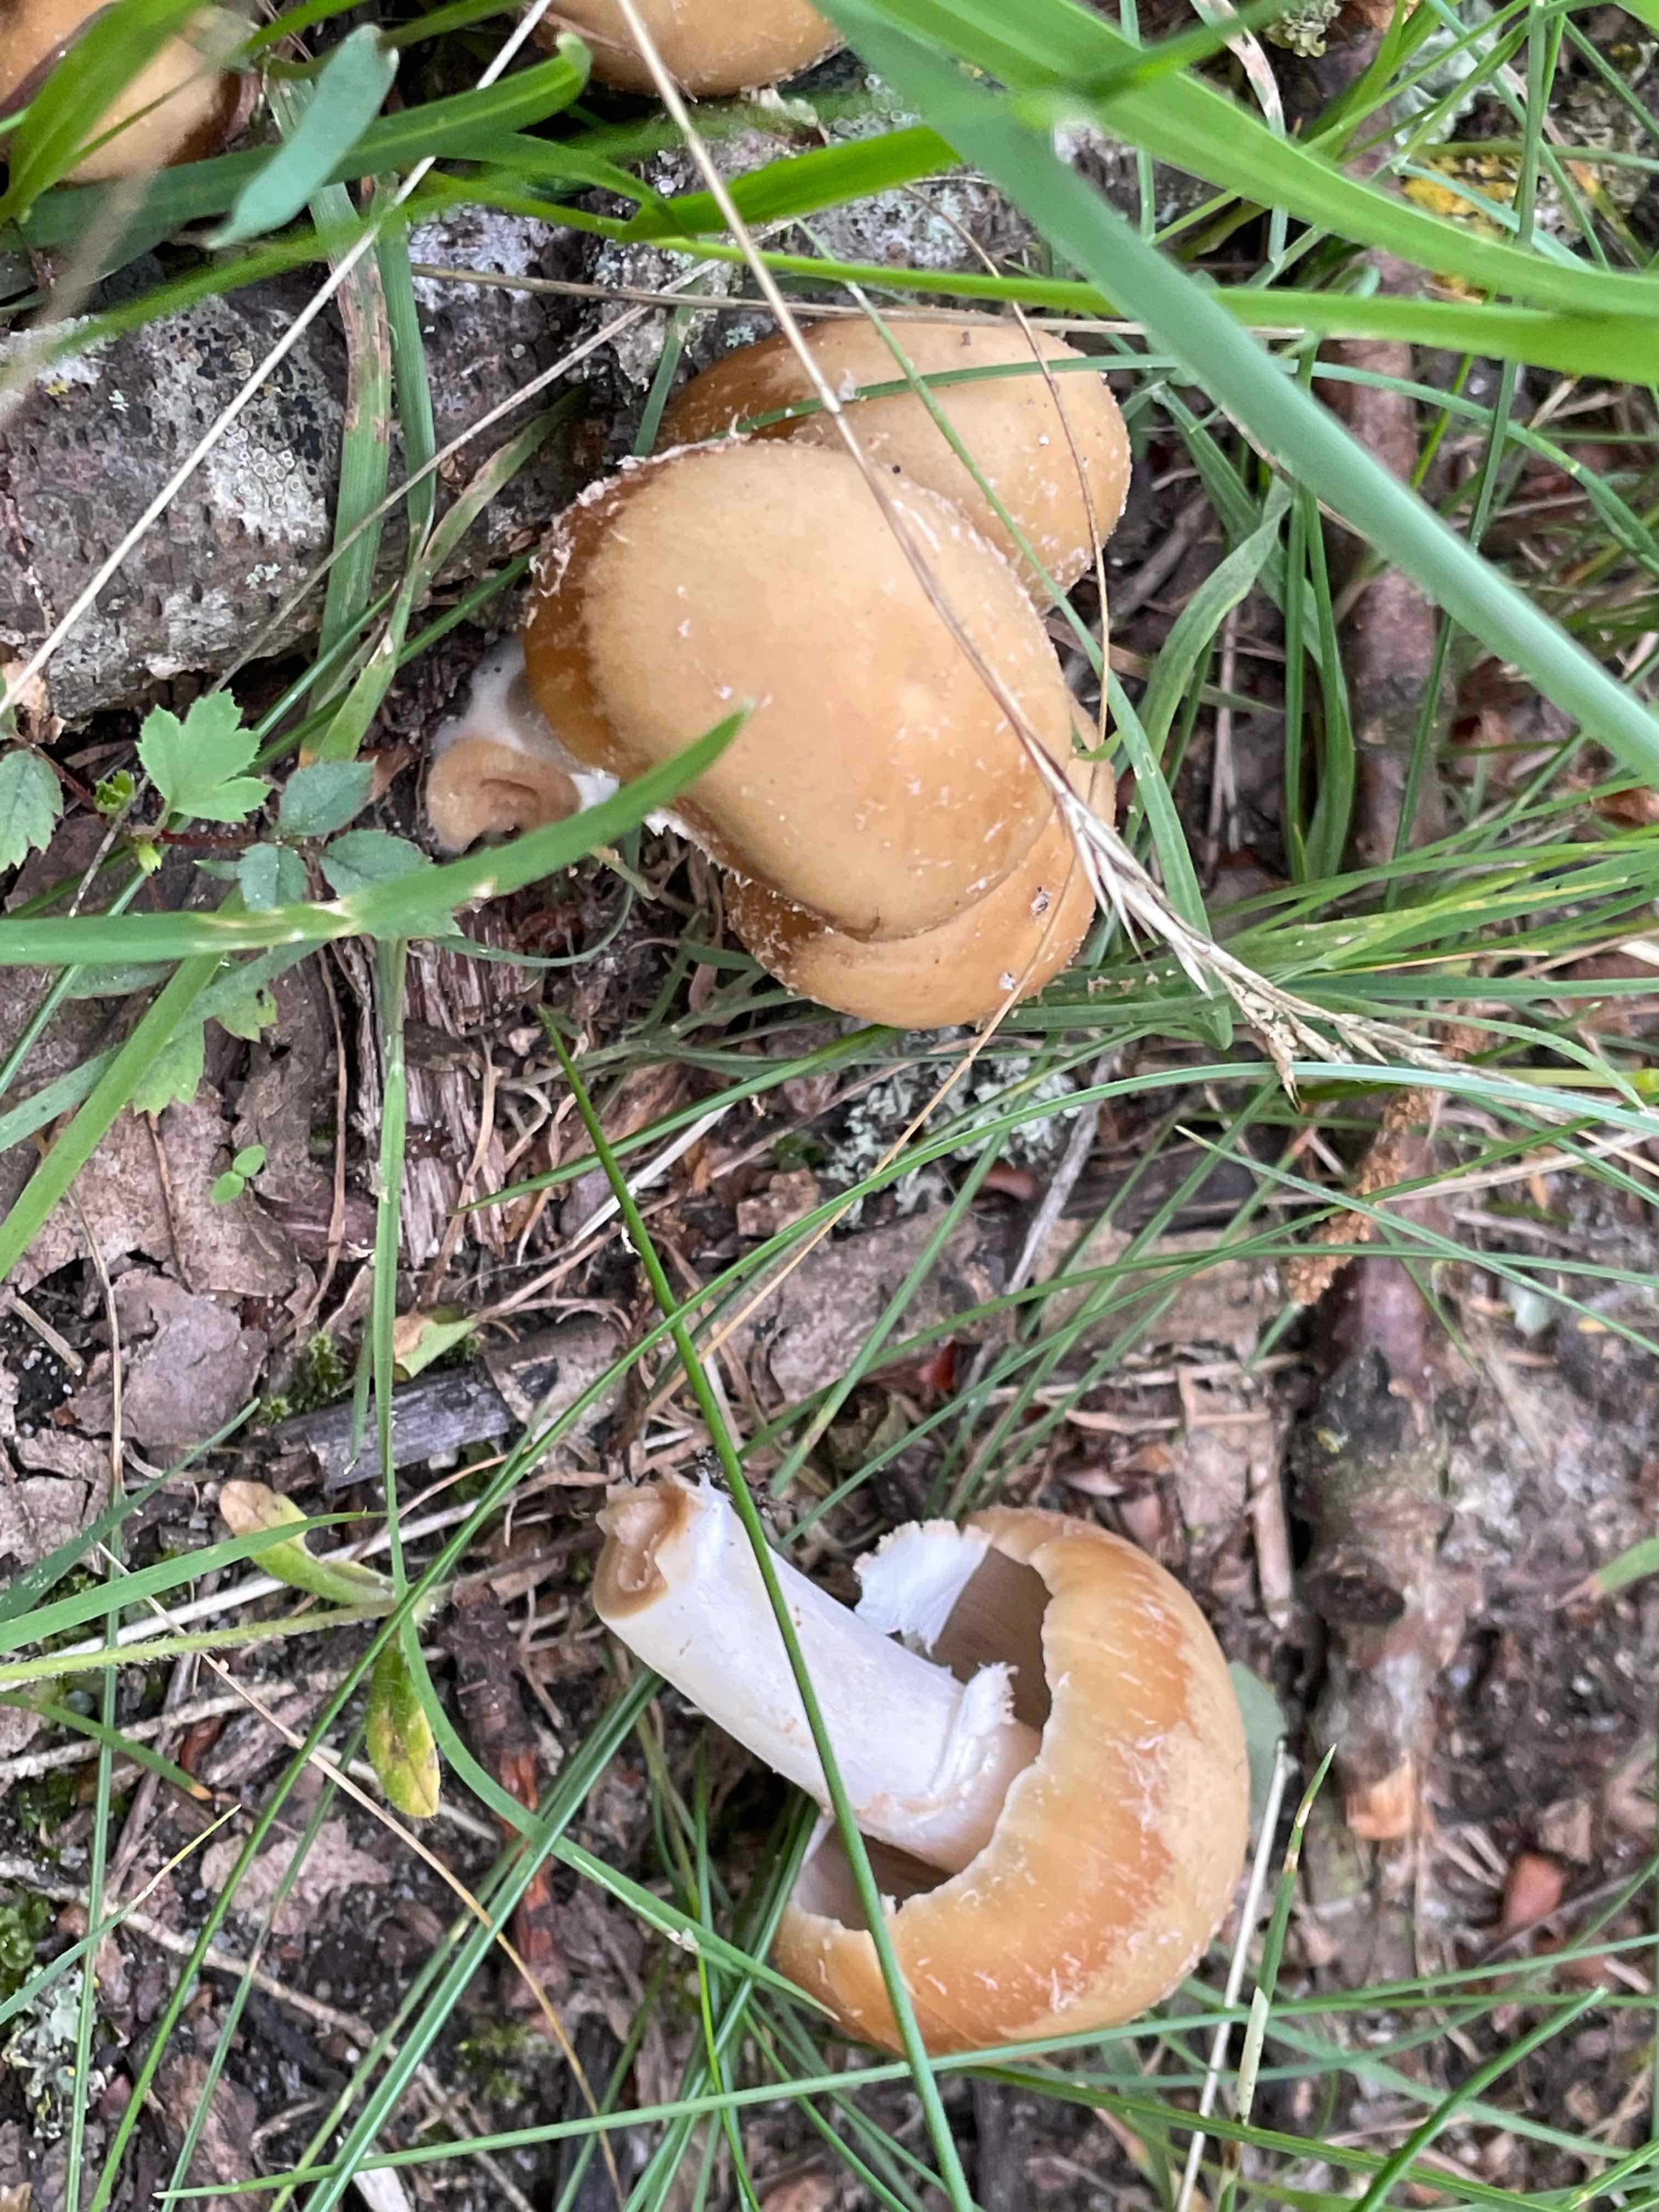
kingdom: Fungi
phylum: Basidiomycota
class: Agaricomycetes
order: Agaricales
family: Psathyrellaceae
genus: Candolleomyces
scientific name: Candolleomyces candolleanus
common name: Candolles mørkhat
